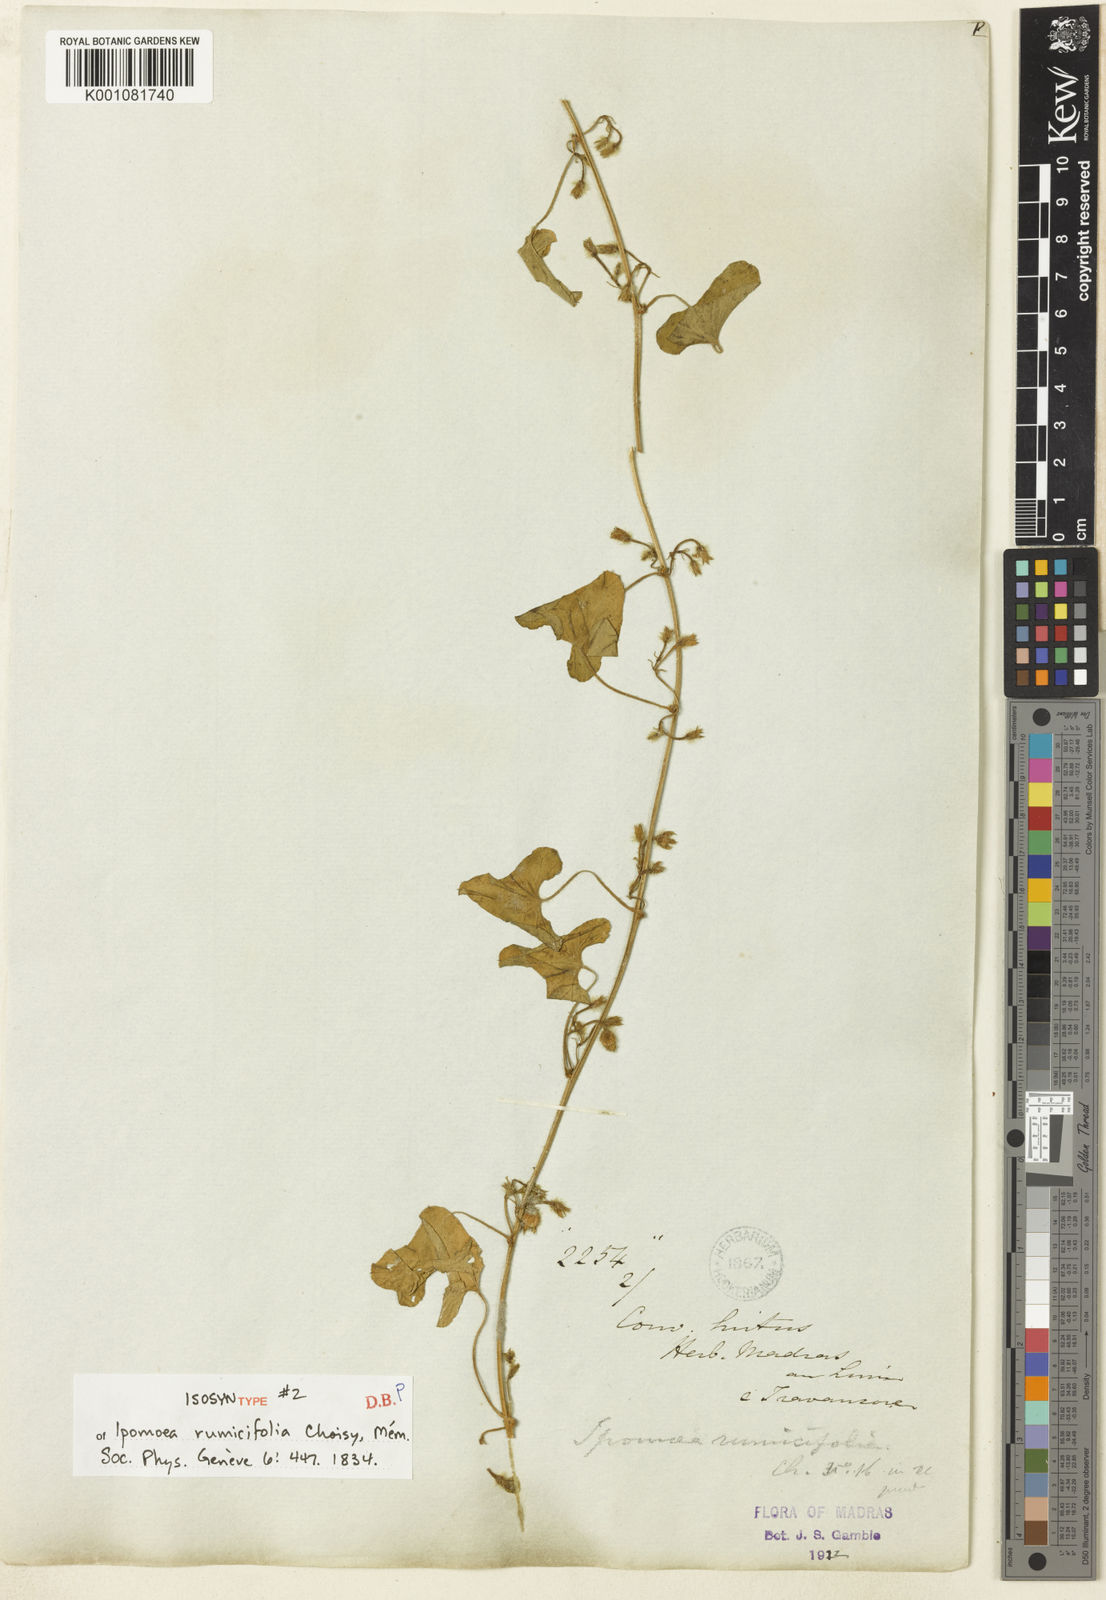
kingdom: Plantae
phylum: Tracheophyta
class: Magnoliopsida
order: Solanales
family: Convolvulaceae
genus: Ipomoea
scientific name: Ipomoea verticillata
